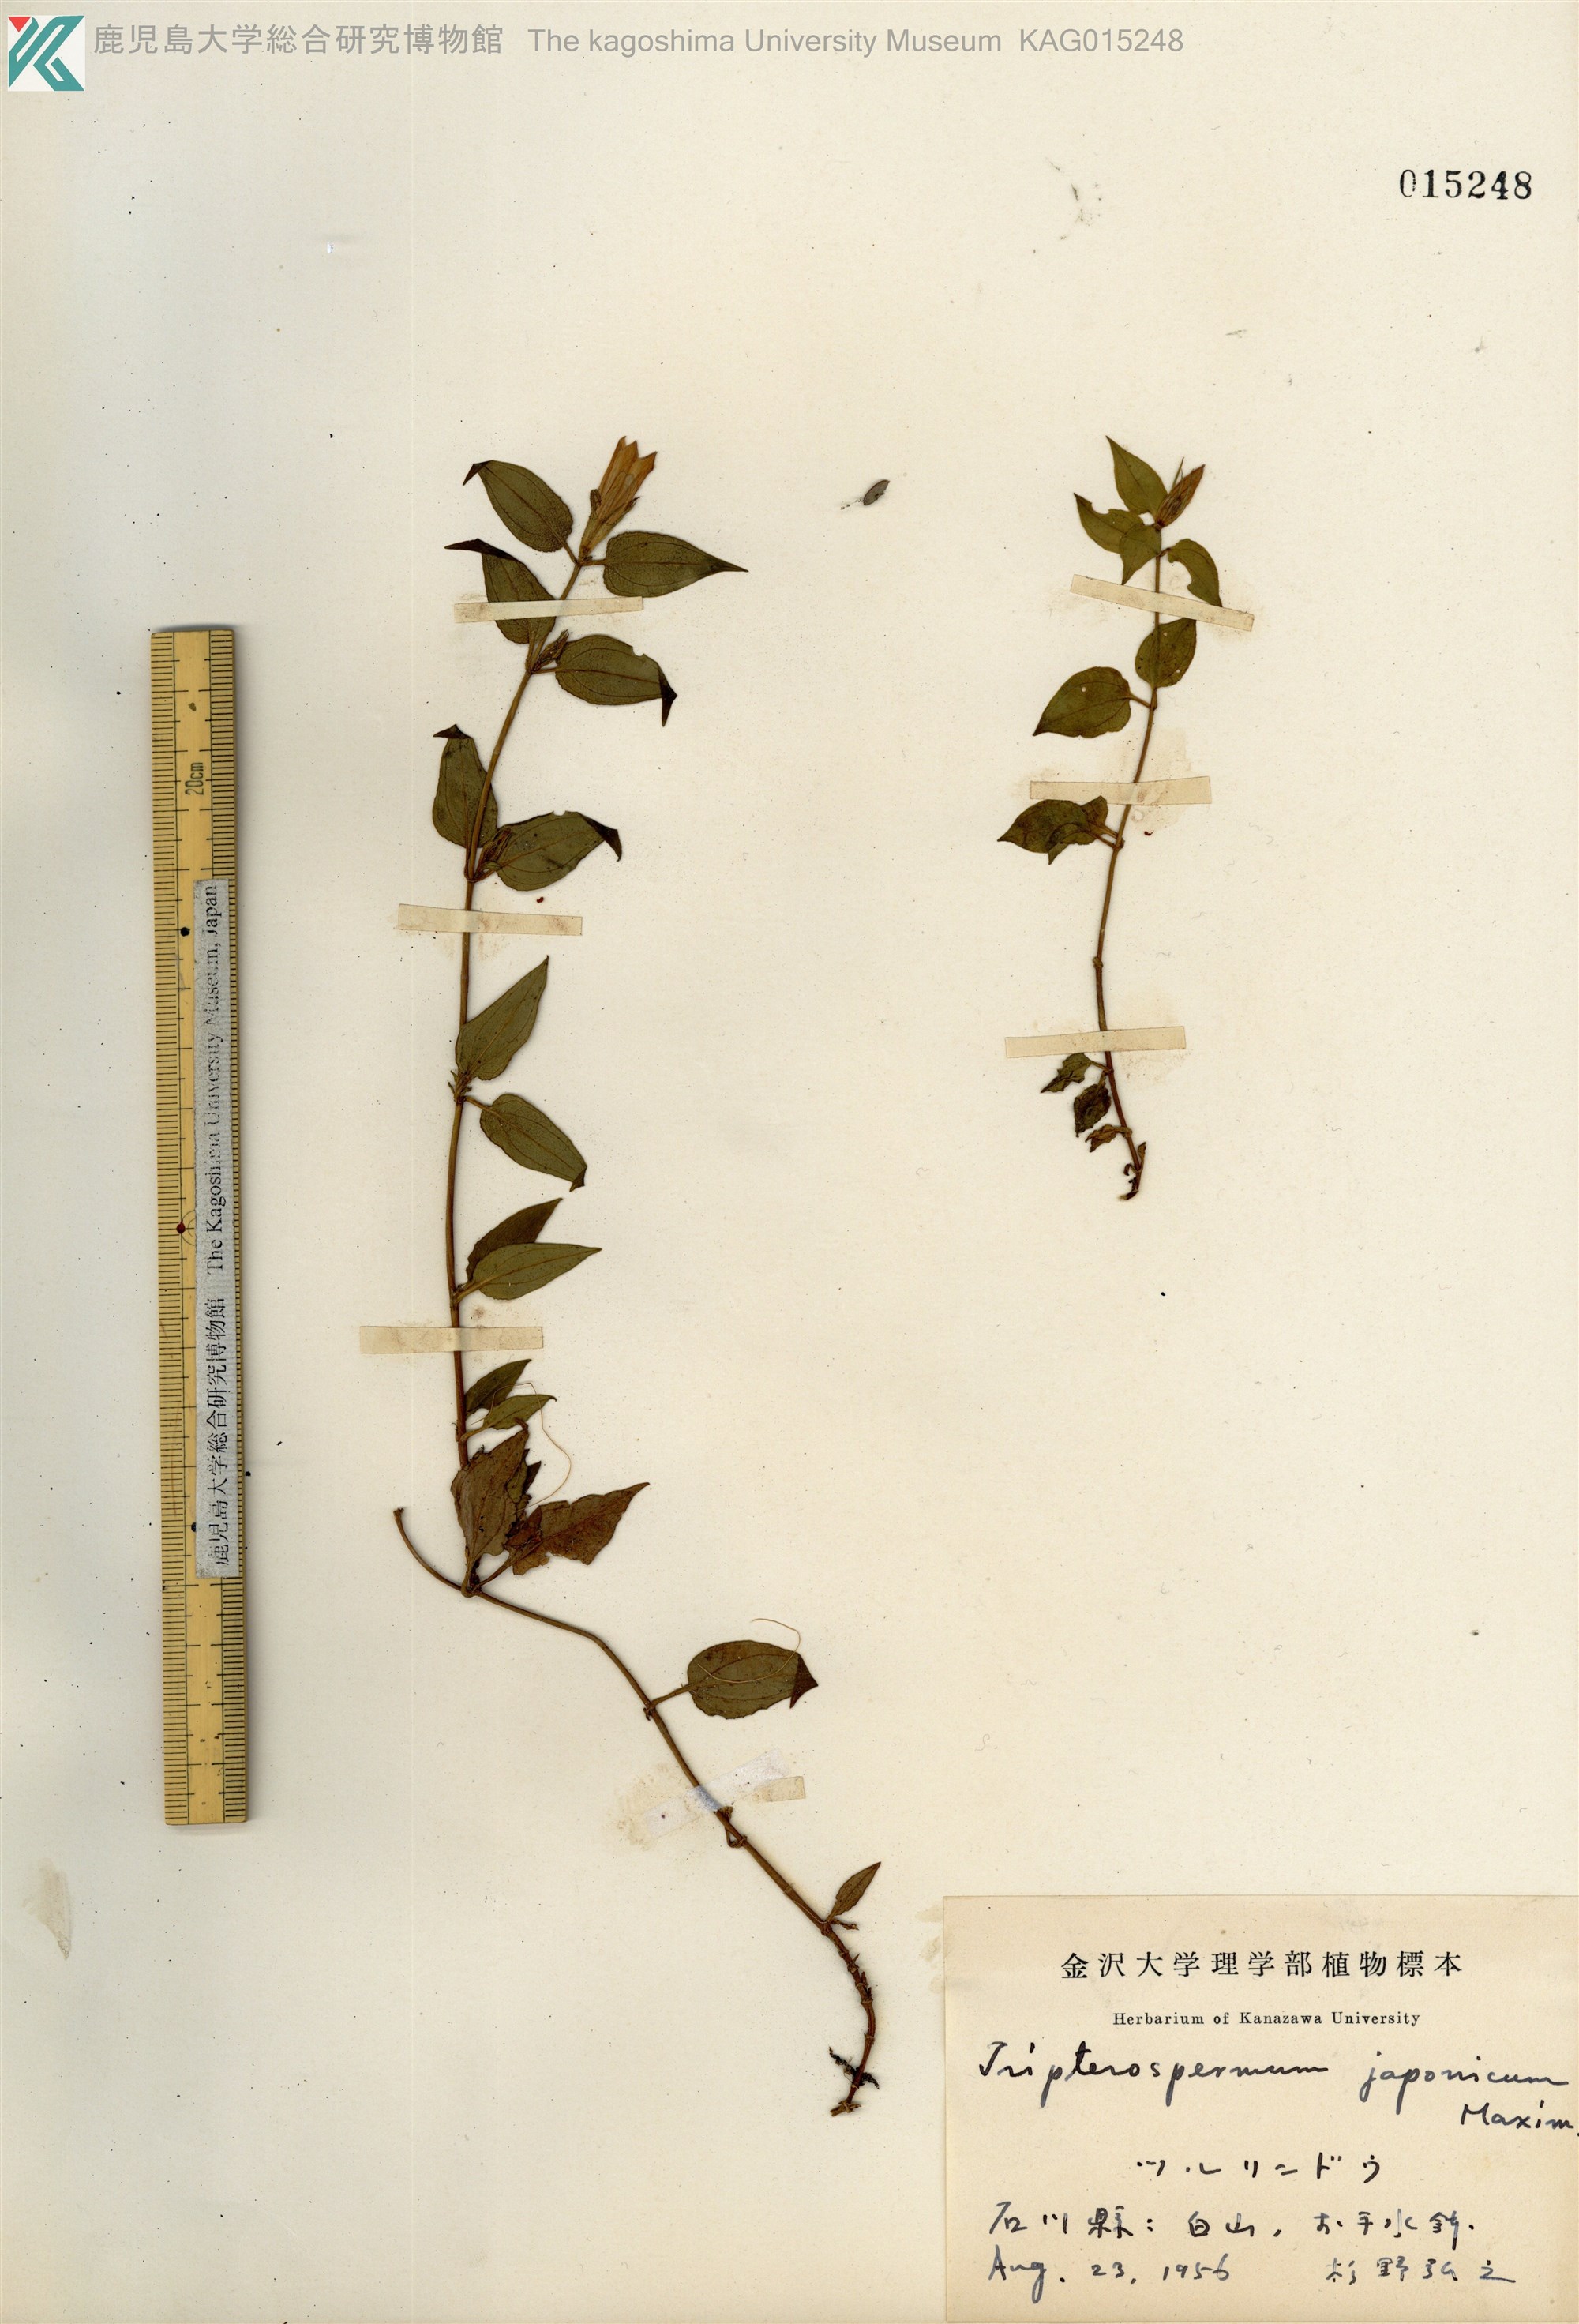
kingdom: Plantae
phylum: Tracheophyta
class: Magnoliopsida
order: Gentianales
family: Gentianaceae
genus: Tripterospermum
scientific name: Tripterospermum trinervium
